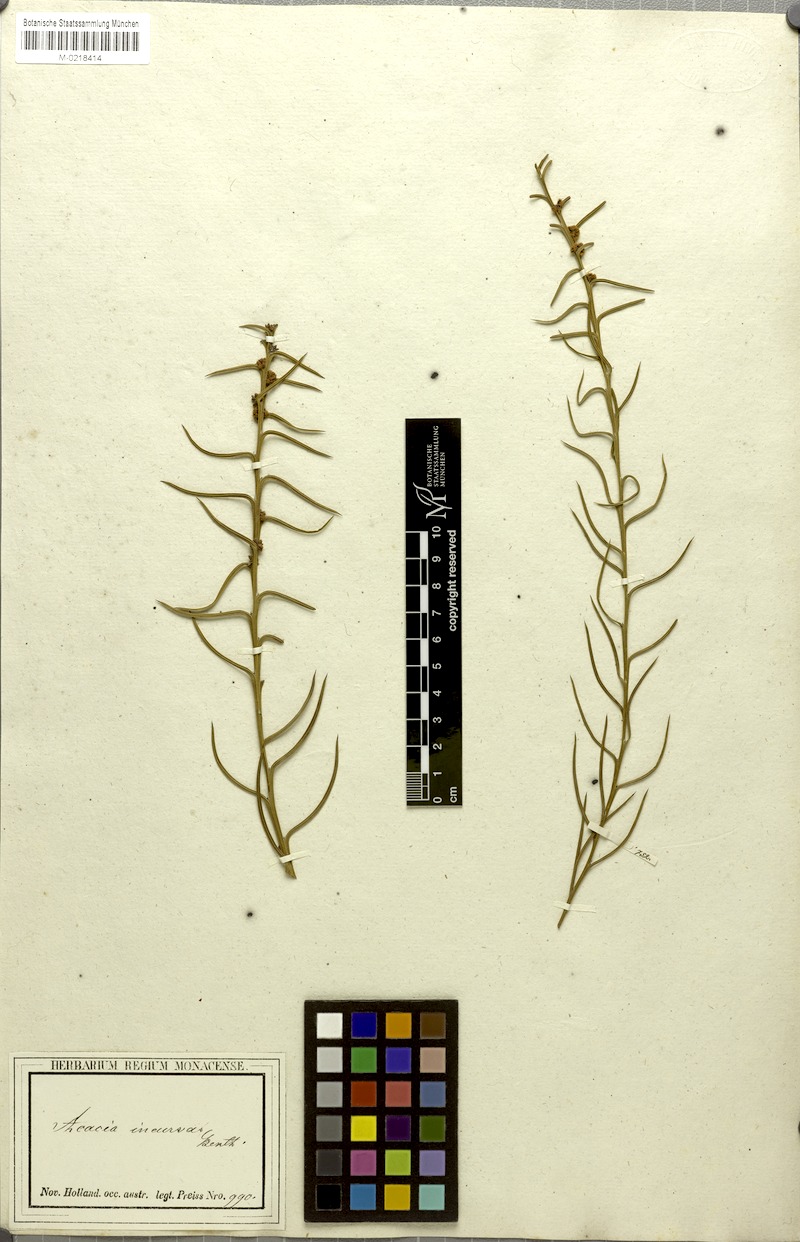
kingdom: Plantae
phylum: Tracheophyta
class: Magnoliopsida
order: Fabales
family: Fabaceae
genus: Acacia
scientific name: Acacia incurva
